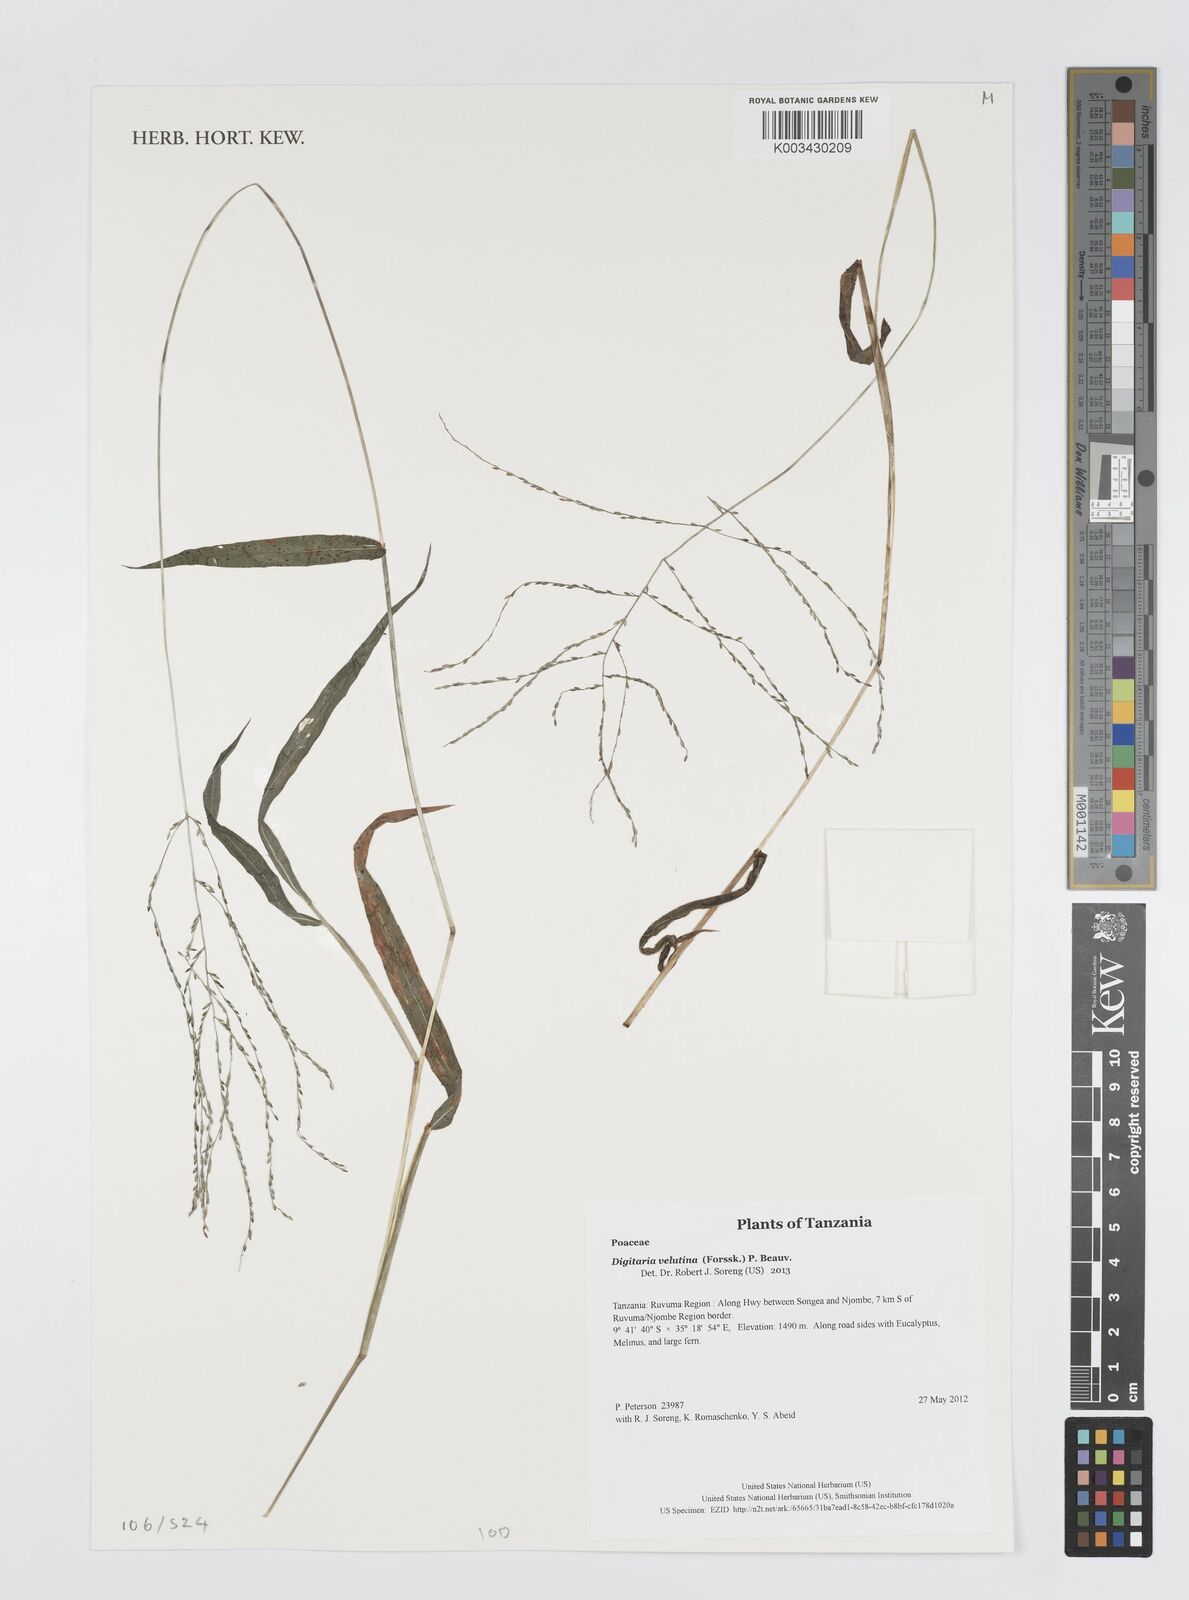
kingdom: Plantae
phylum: Tracheophyta
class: Liliopsida
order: Poales
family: Poaceae
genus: Digitaria
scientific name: Digitaria velutina
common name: Long-plume finger grass
